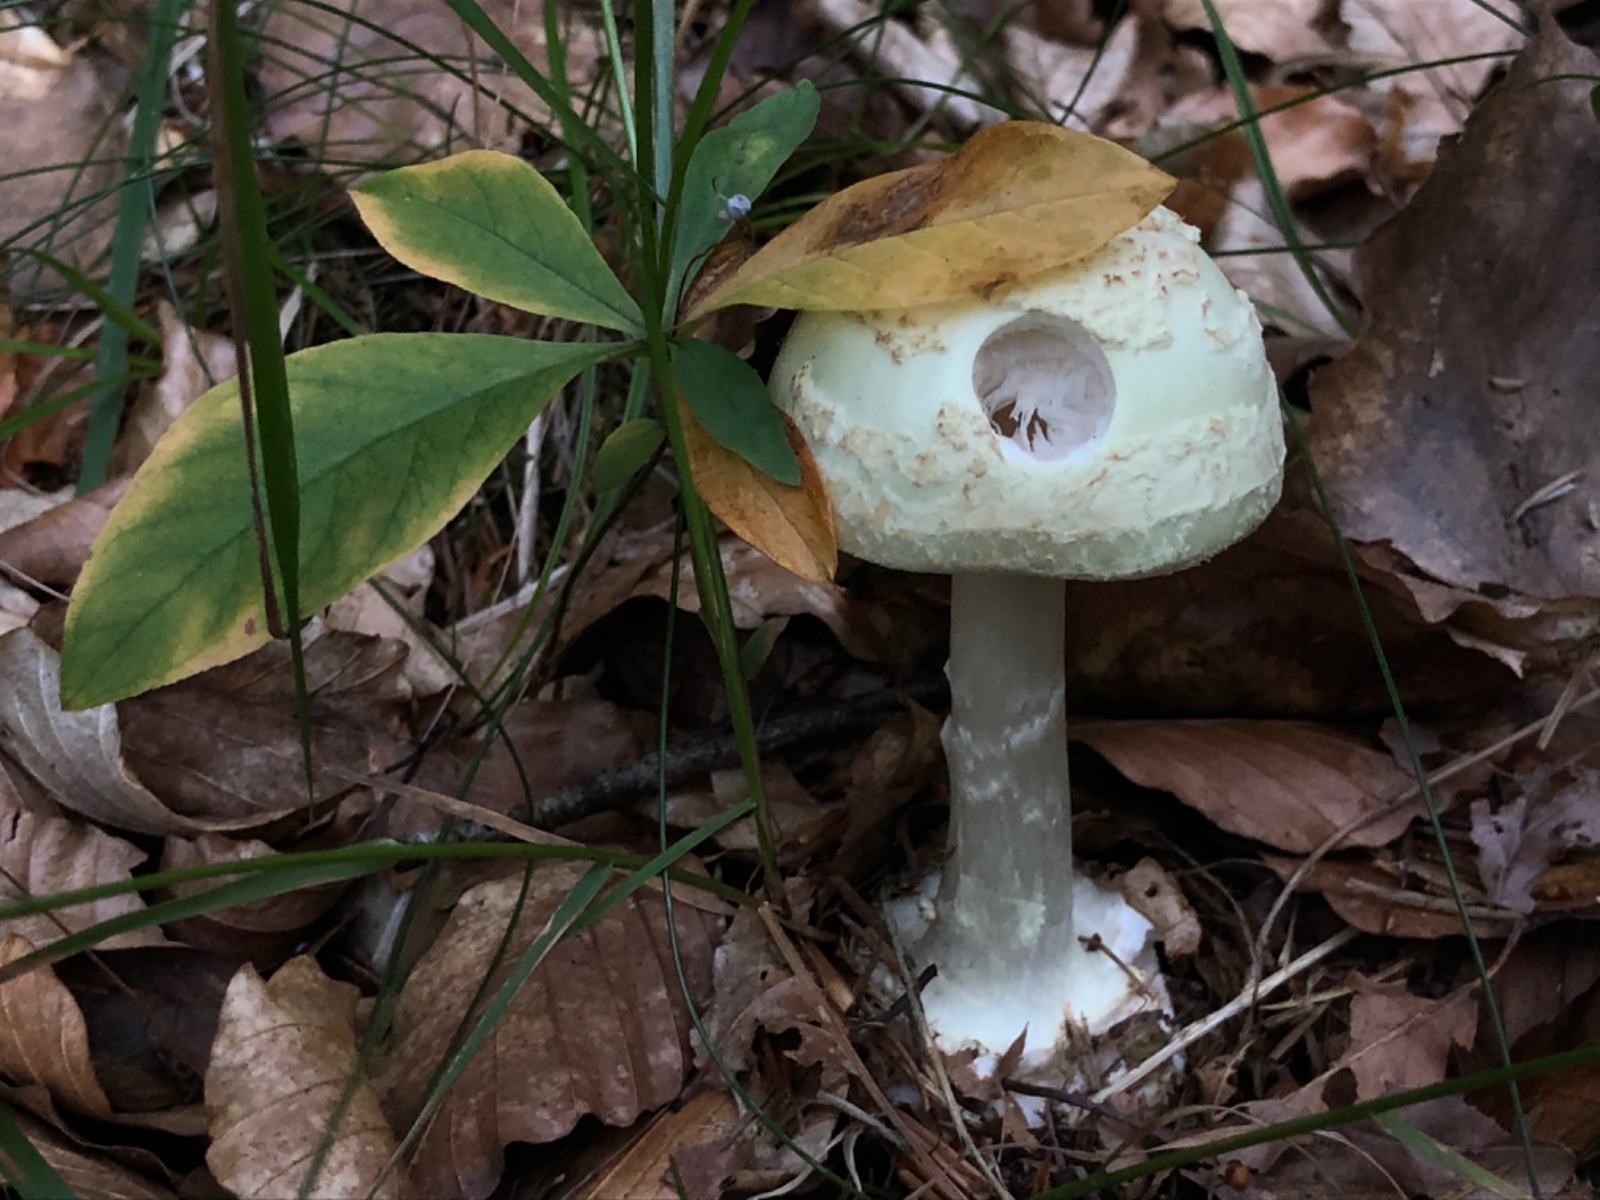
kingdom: Fungi
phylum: Basidiomycota
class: Agaricomycetes
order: Agaricales
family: Amanitaceae
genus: Amanita
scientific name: Amanita citrina
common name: kugleknoldet fluesvamp
